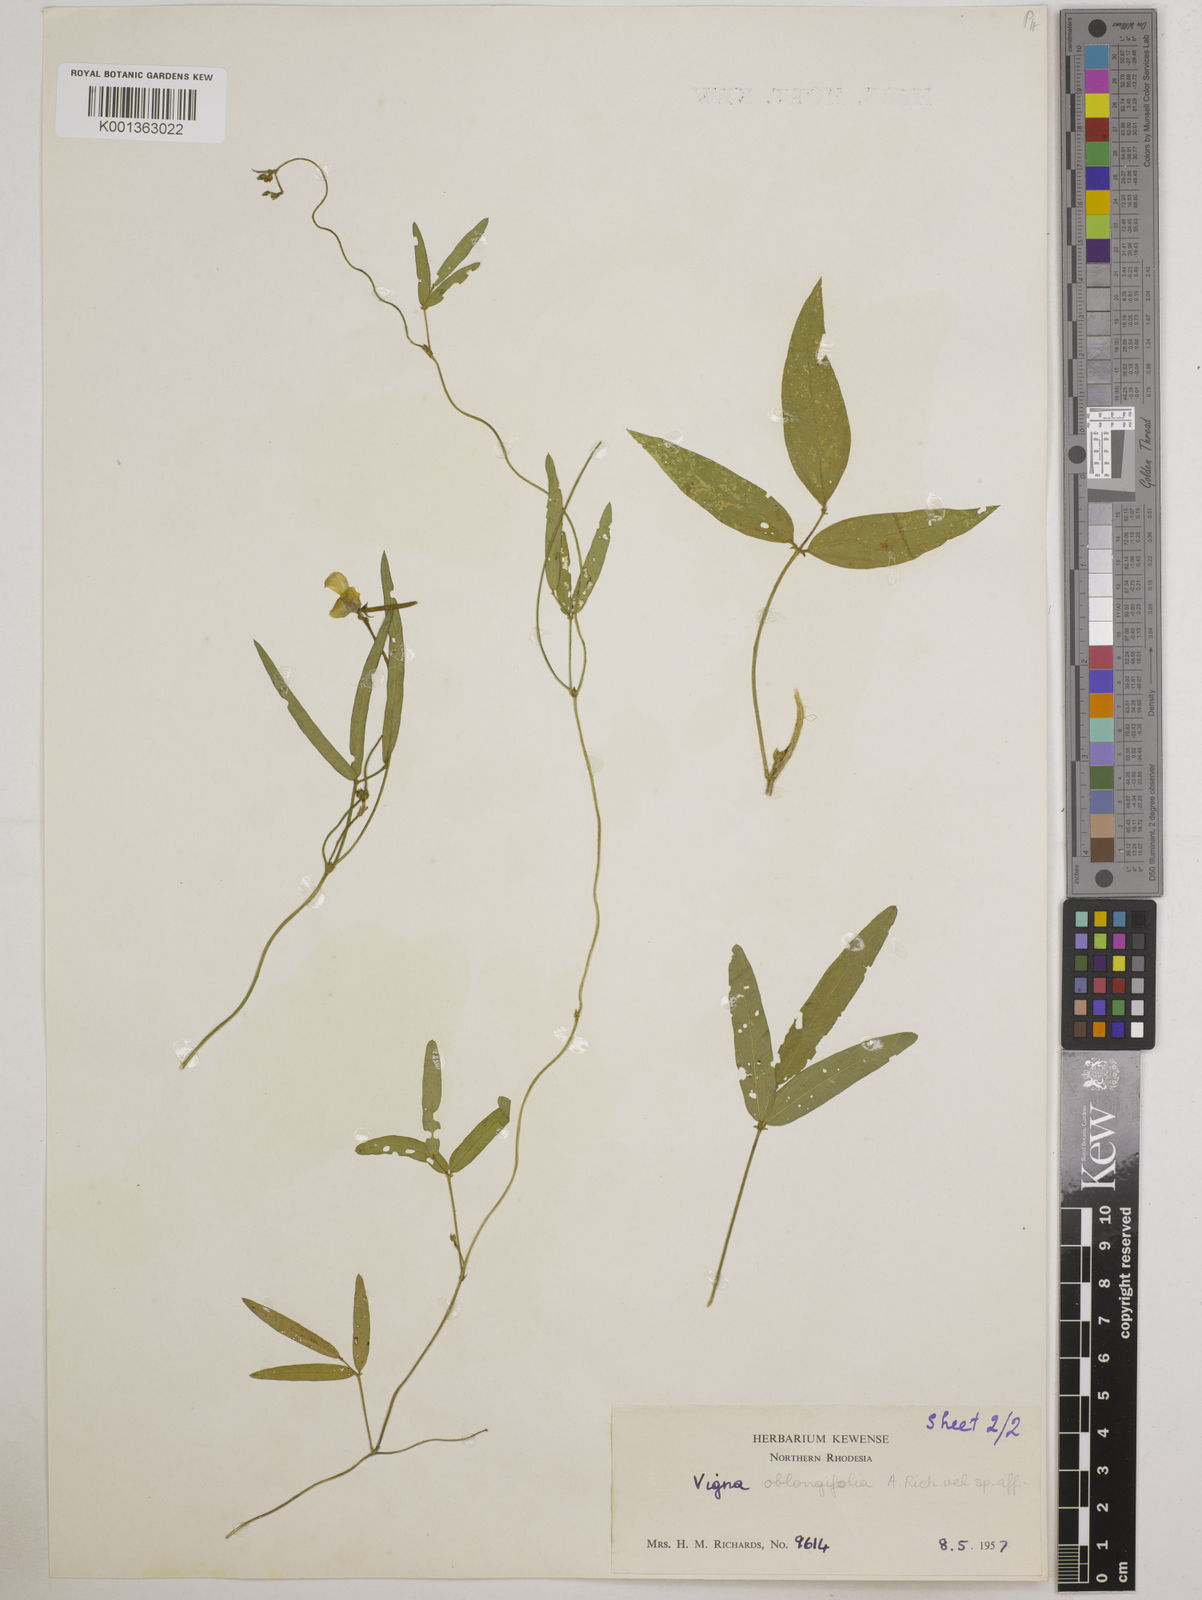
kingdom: Plantae
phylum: Tracheophyta
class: Magnoliopsida
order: Fabales
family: Fabaceae
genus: Vigna
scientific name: Vigna oblongifolia
